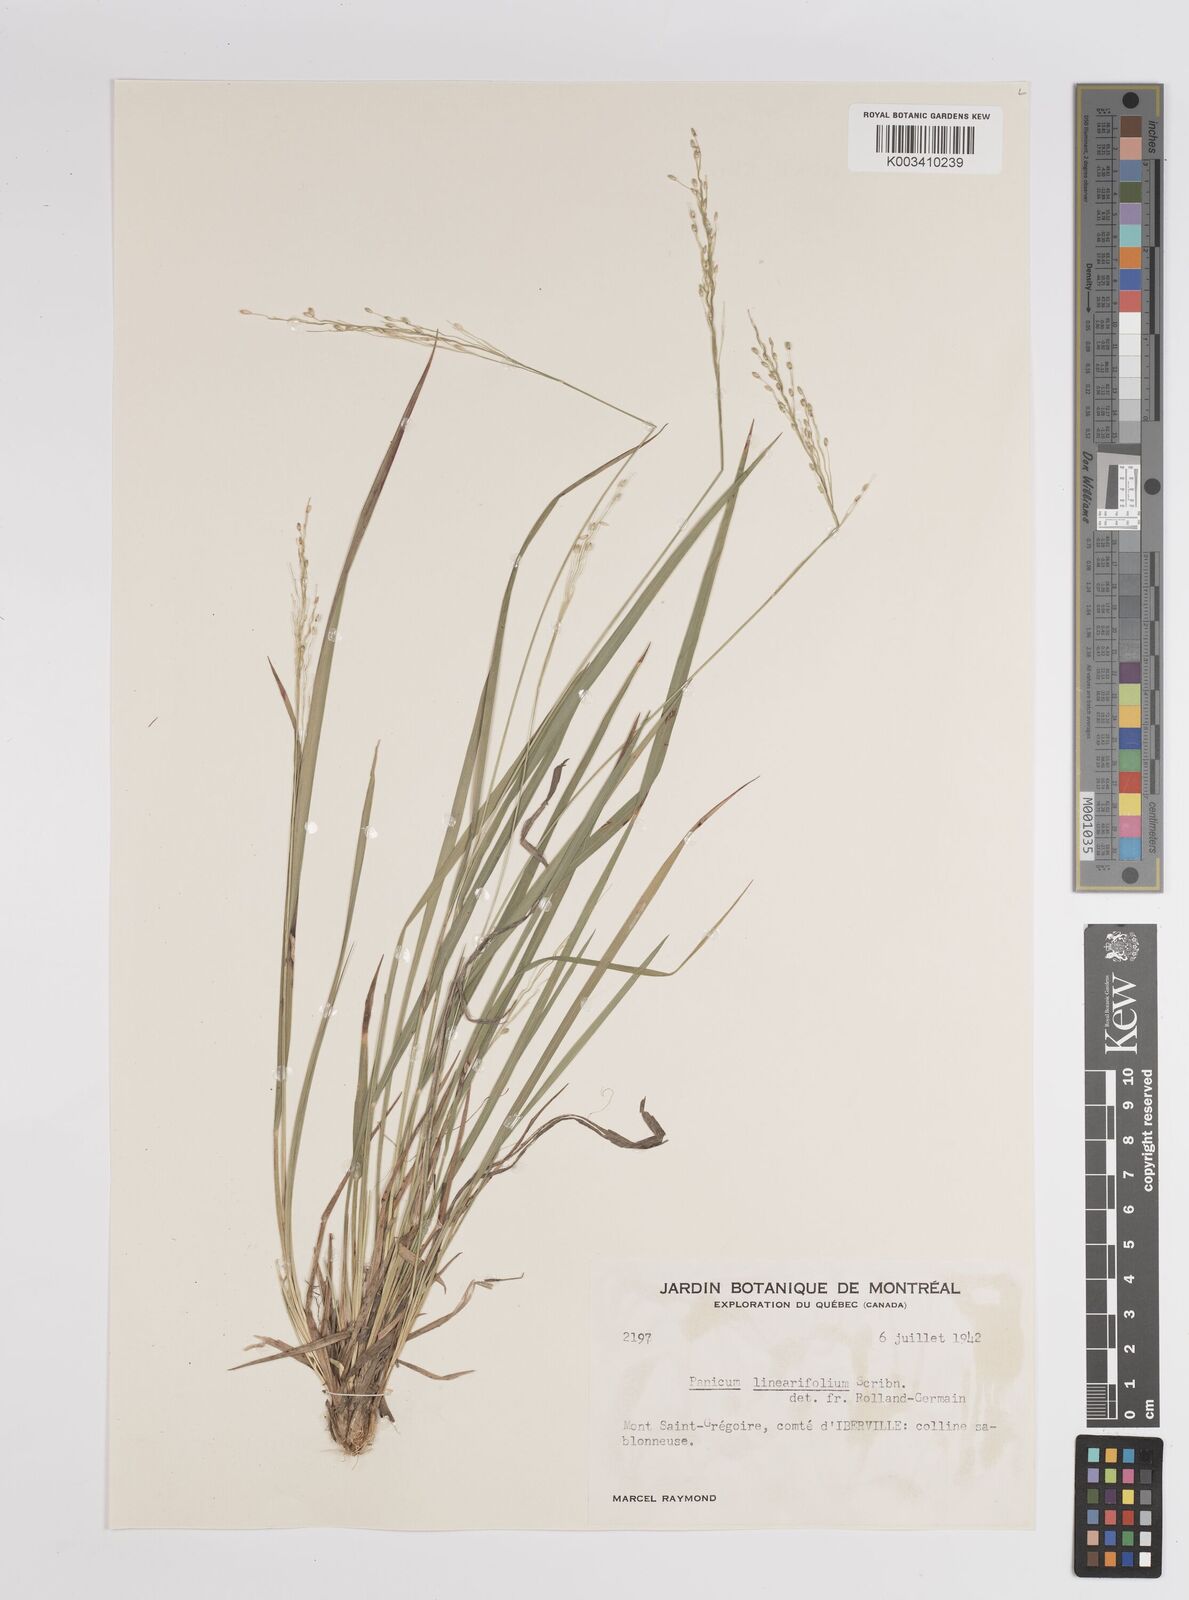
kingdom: Plantae
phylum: Tracheophyta
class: Liliopsida
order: Poales
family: Poaceae
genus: Dichanthelium
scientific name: Dichanthelium linearifolium
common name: Linear-leaved panicgrass
